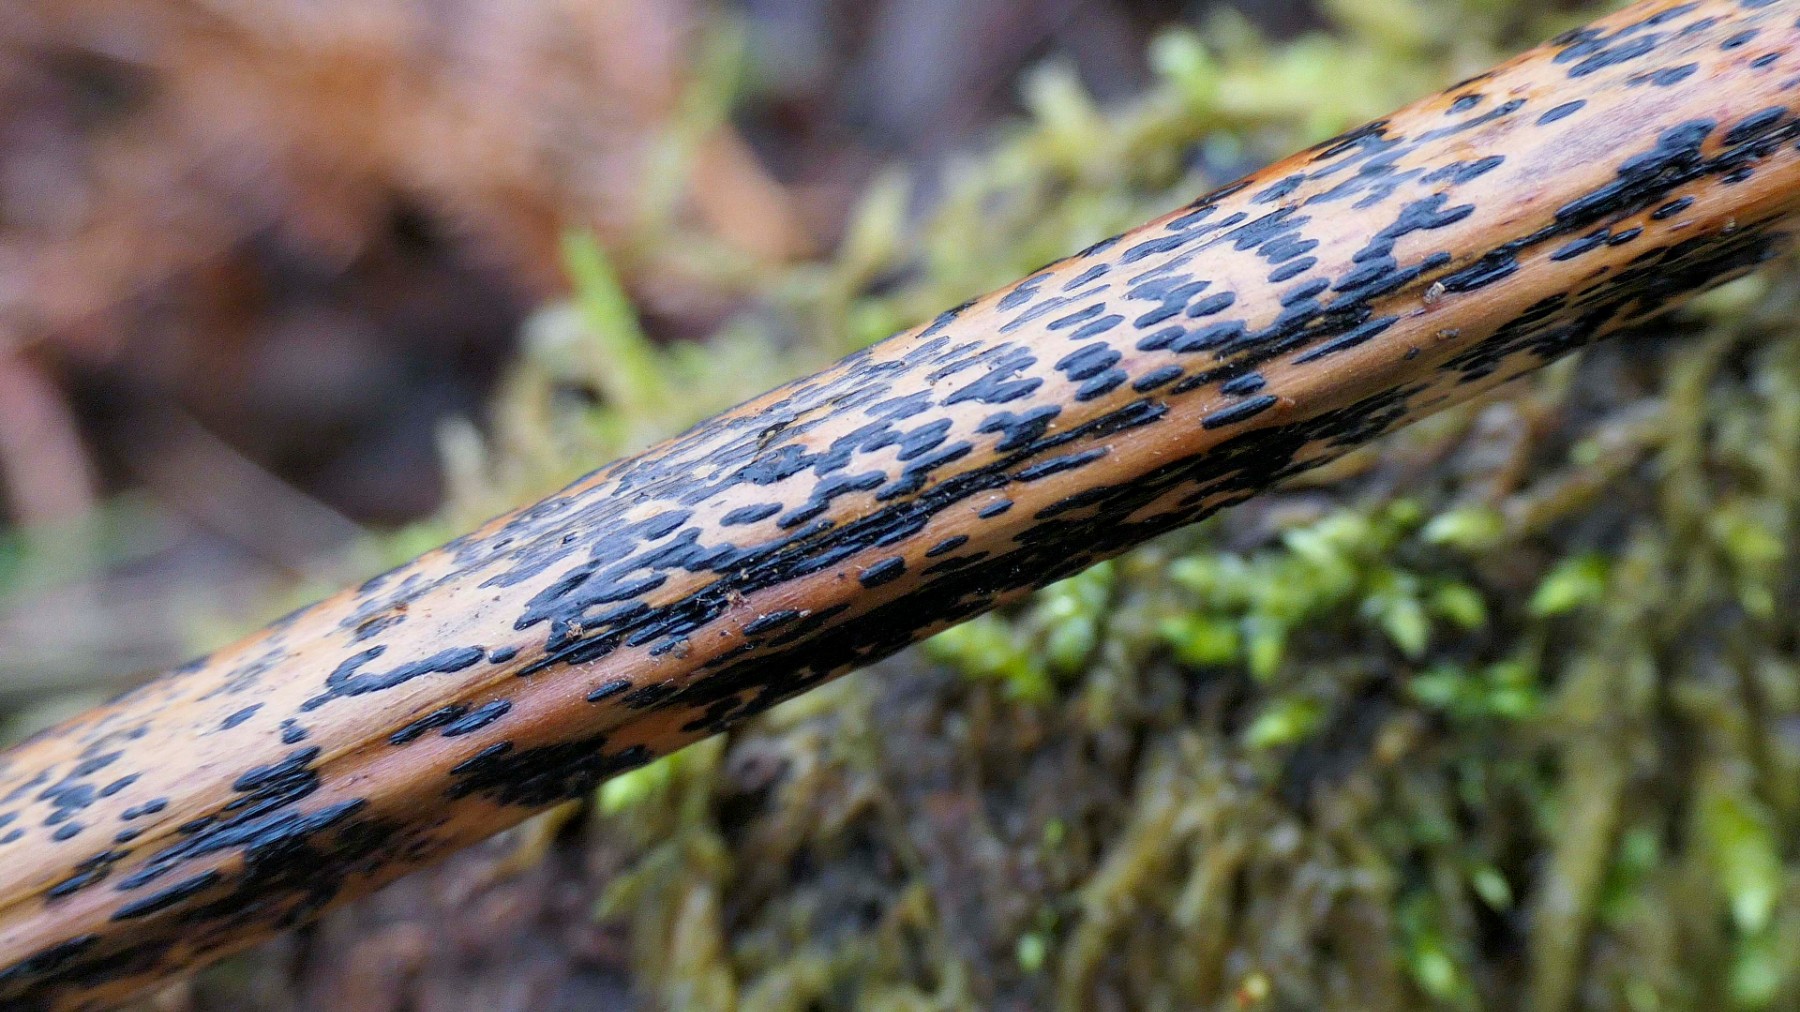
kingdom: Fungi
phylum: Ascomycota
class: Dothideomycetes
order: Pleosporales
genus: Rhopographus
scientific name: Rhopographus filicinus
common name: Bracken map
